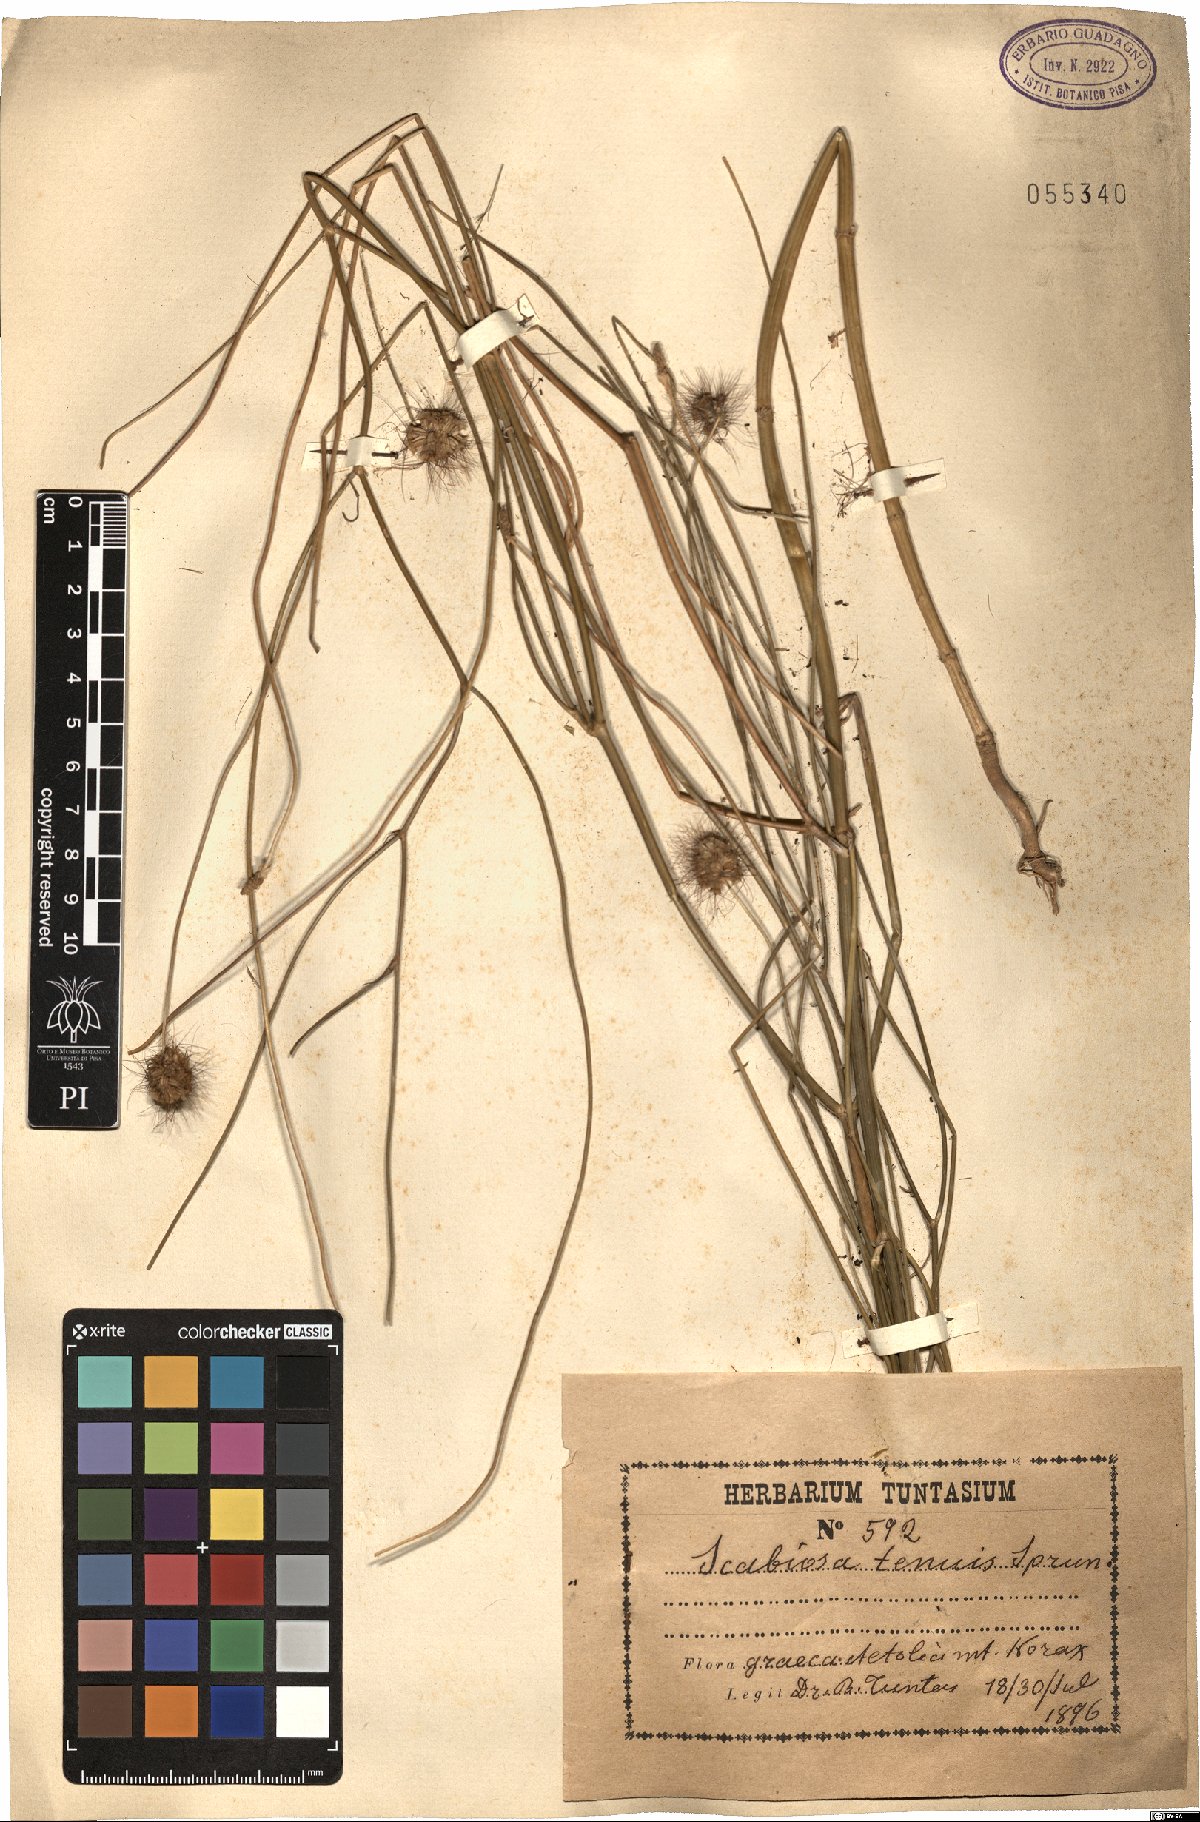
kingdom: Plantae
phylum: Tracheophyta
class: Magnoliopsida
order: Dipsacales
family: Caprifoliaceae
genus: Scabiosa
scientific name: Scabiosa tenuis
